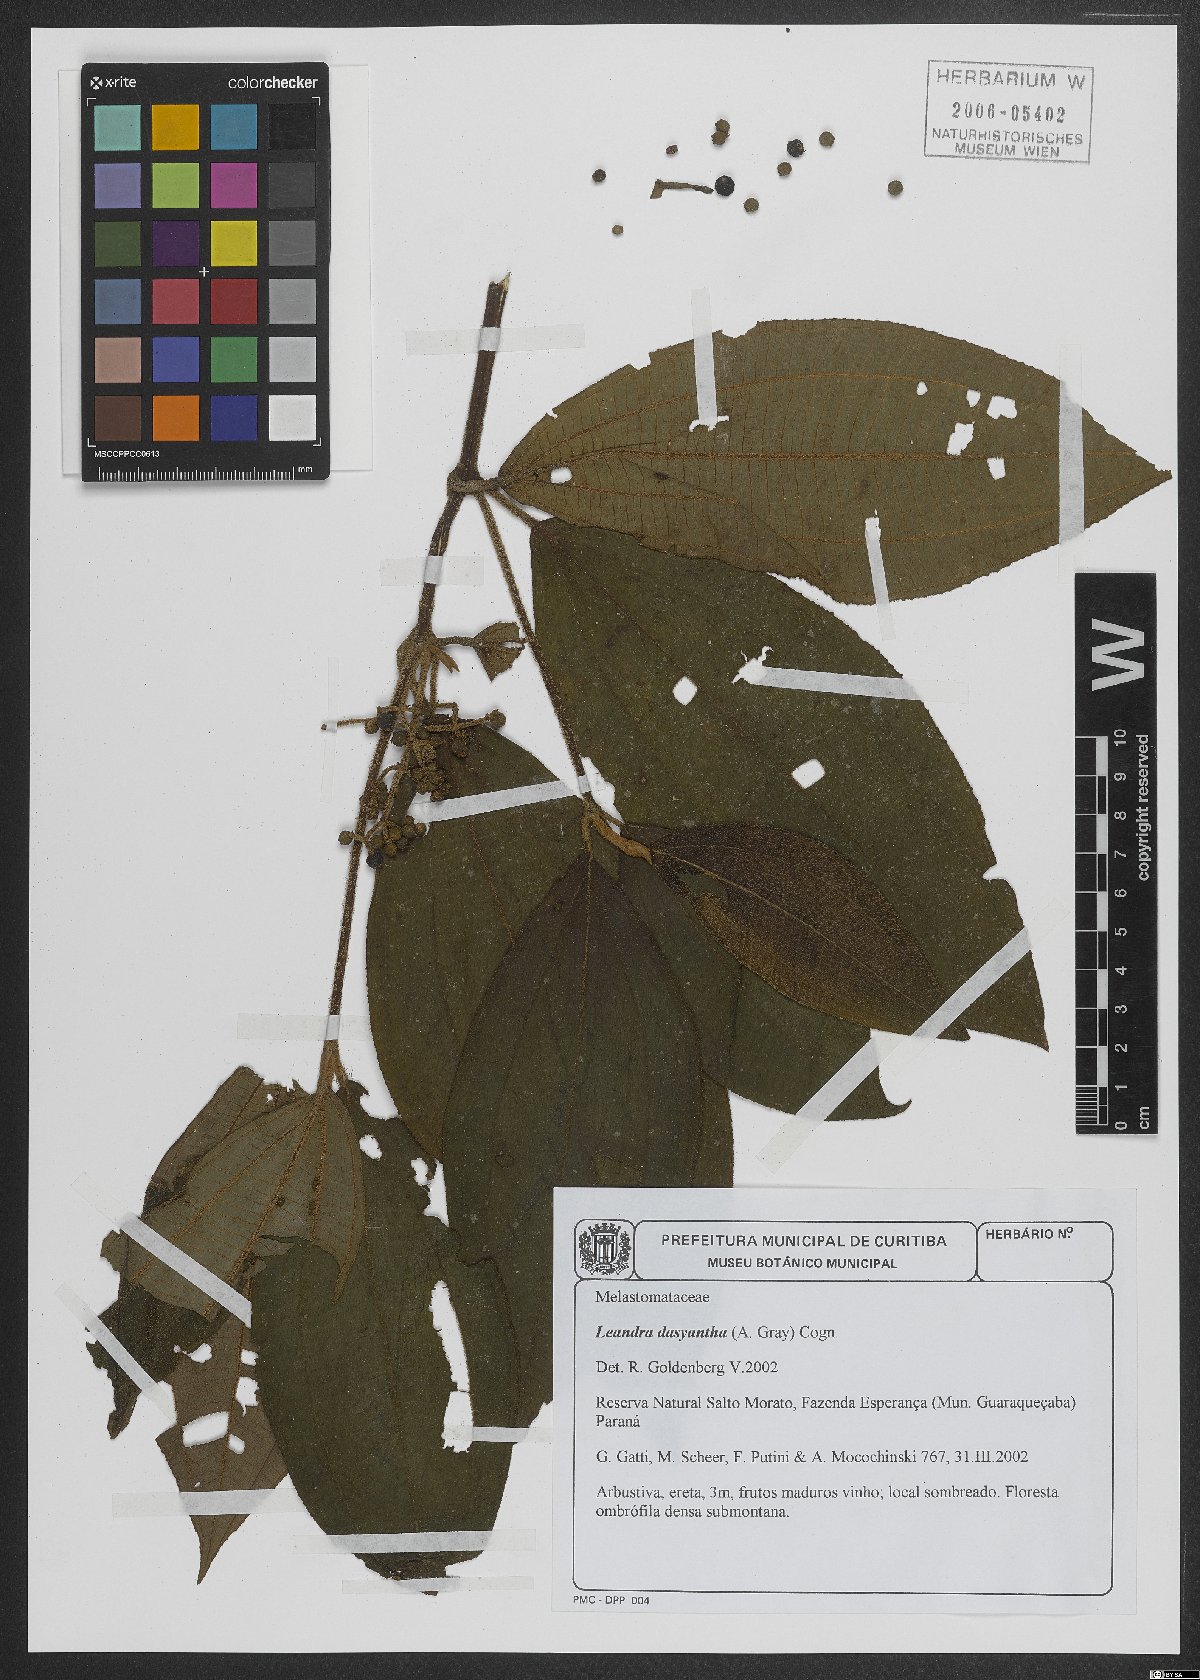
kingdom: Plantae
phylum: Tracheophyta
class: Magnoliopsida
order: Myrtales
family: Melastomataceae
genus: Miconia
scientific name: Miconia dasytricha
